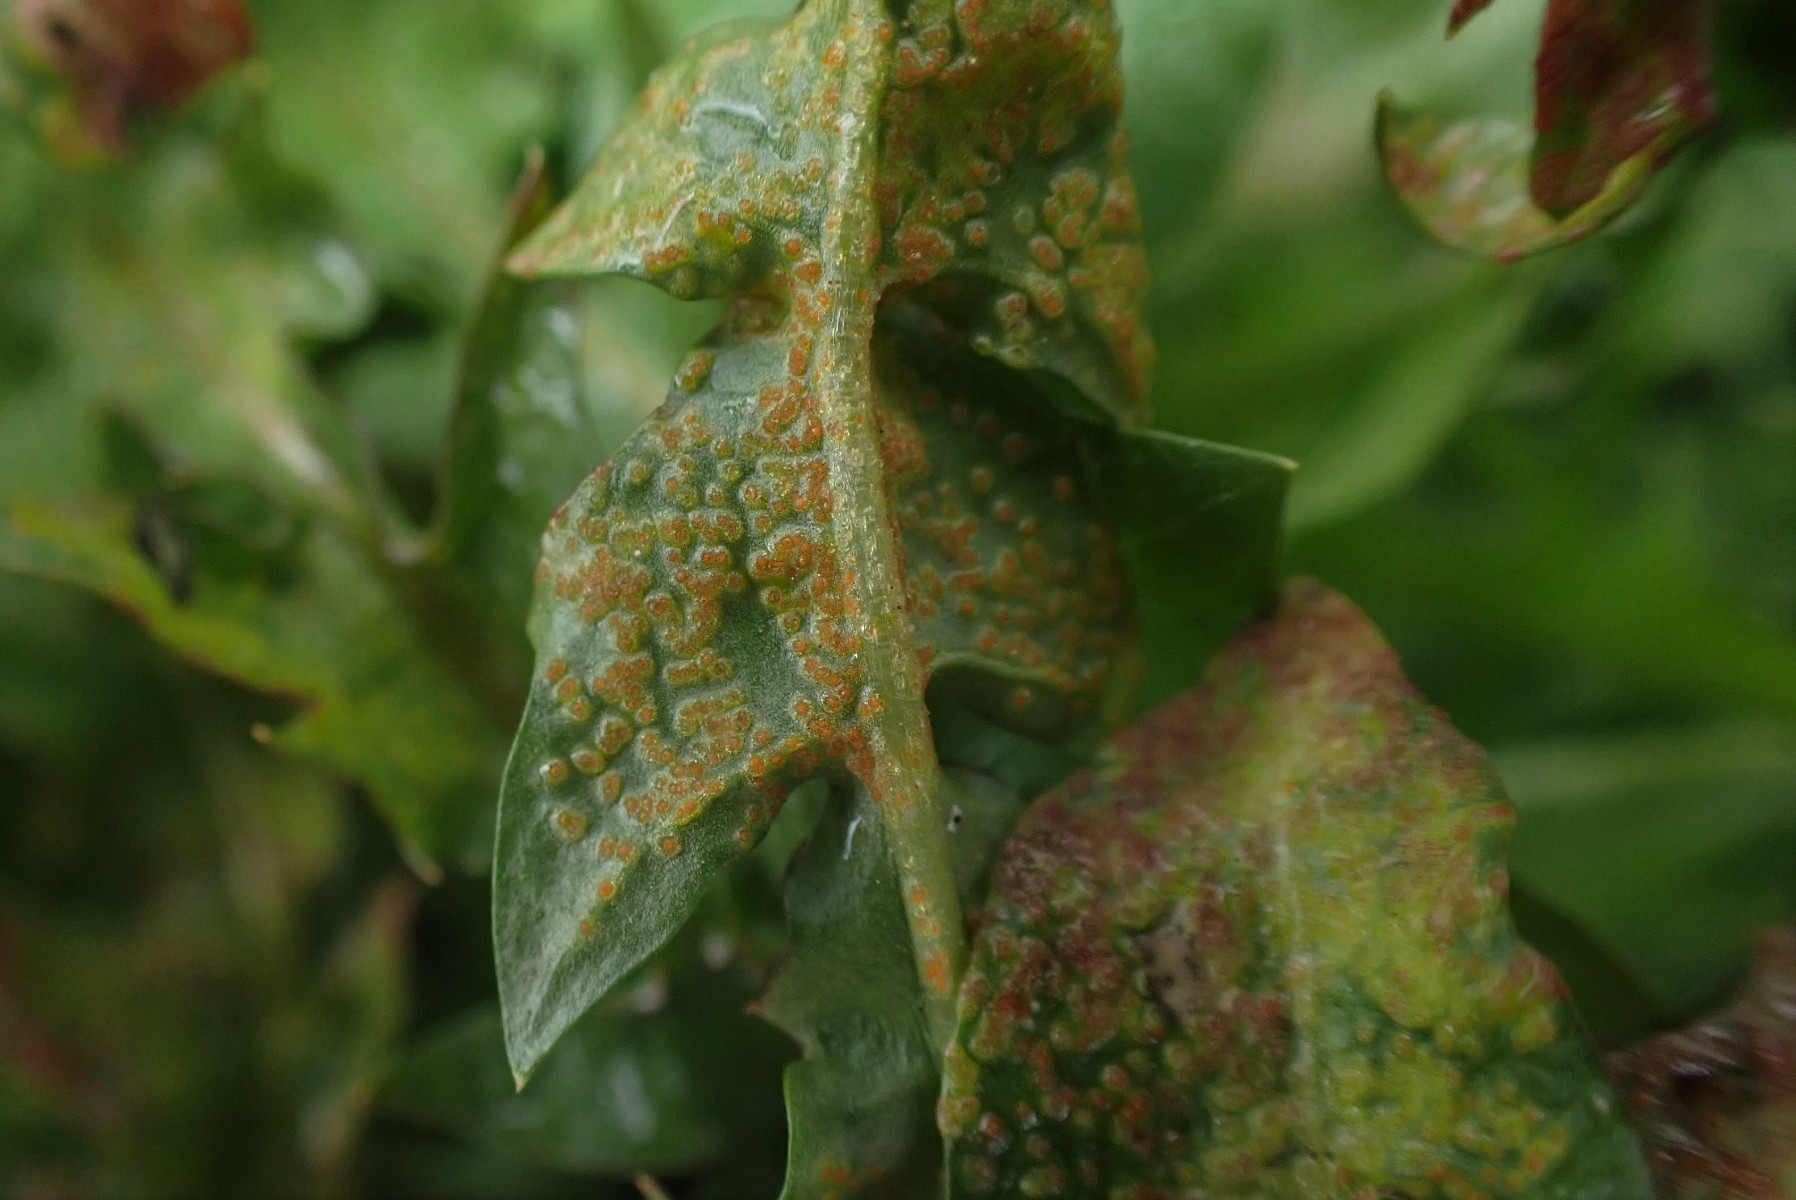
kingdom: Fungi
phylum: Chytridiomycota
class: Chytridiomycetes
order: Chytridiales
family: Synchytriaceae
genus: Synchytrium
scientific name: Synchytrium taraxaci
